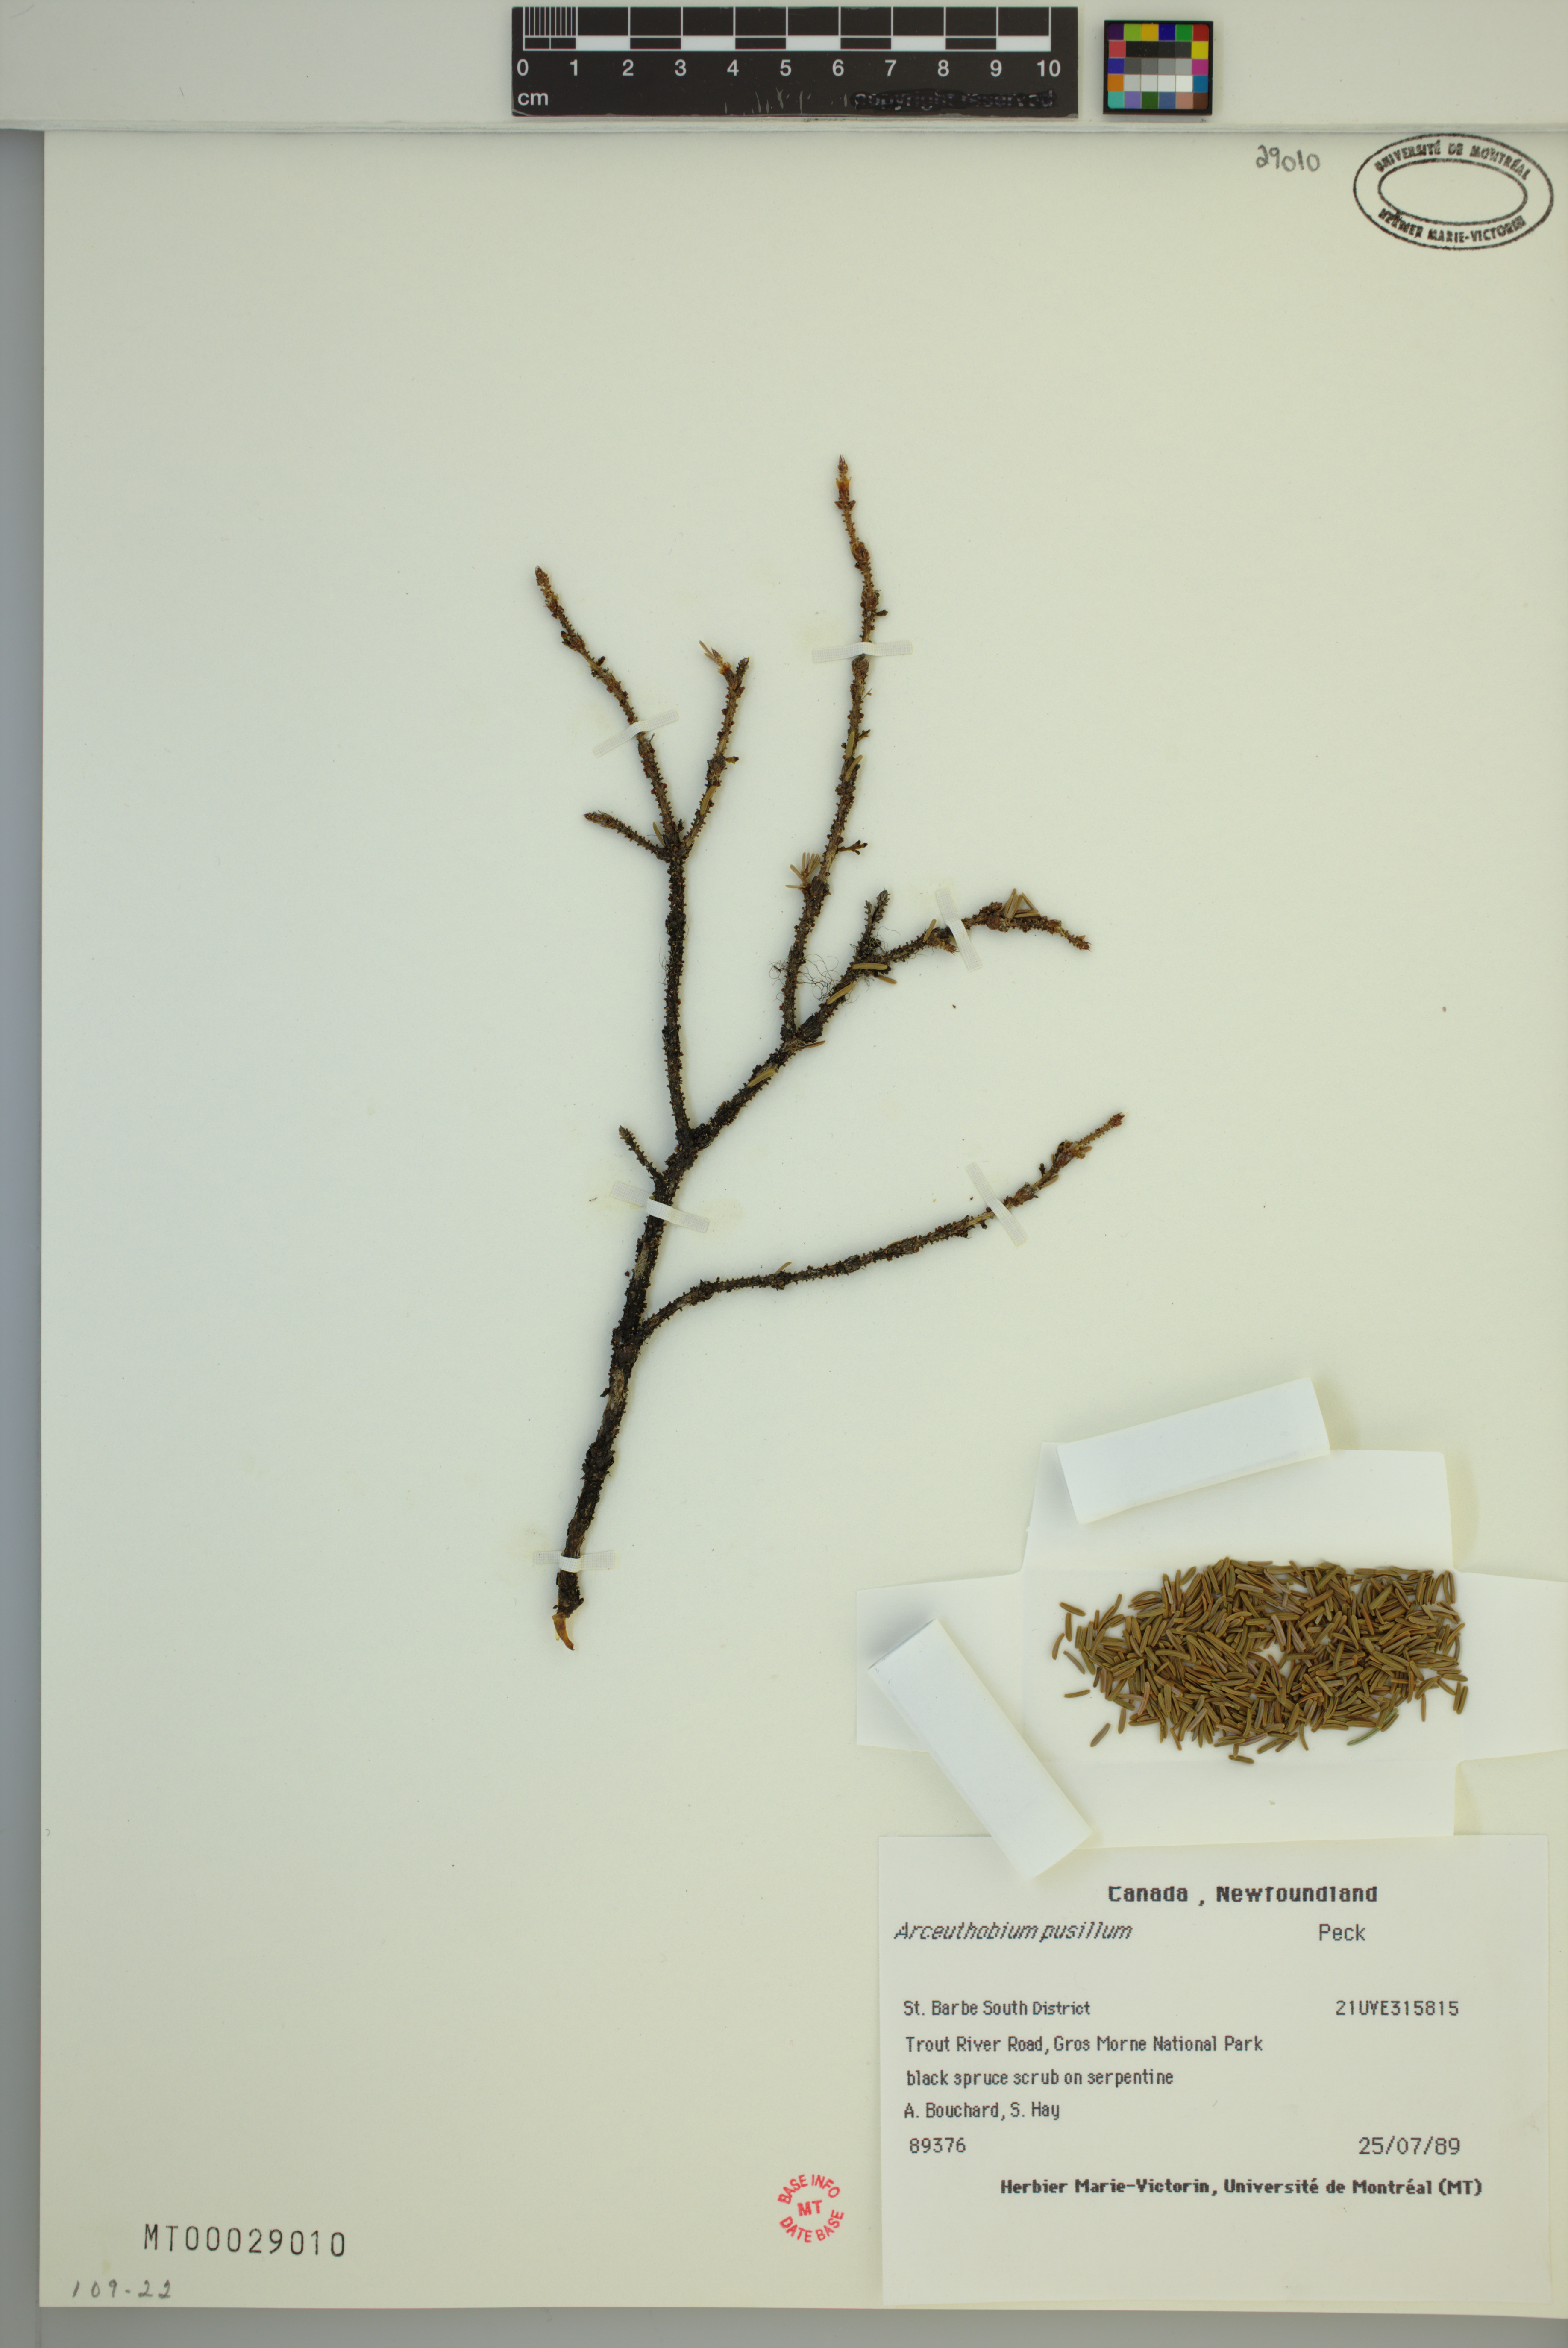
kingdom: Plantae
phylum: Tracheophyta
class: Magnoliopsida
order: Santalales
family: Viscaceae
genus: Arceuthobium
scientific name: Arceuthobium pusillum
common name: Dwarf-mistletoe
